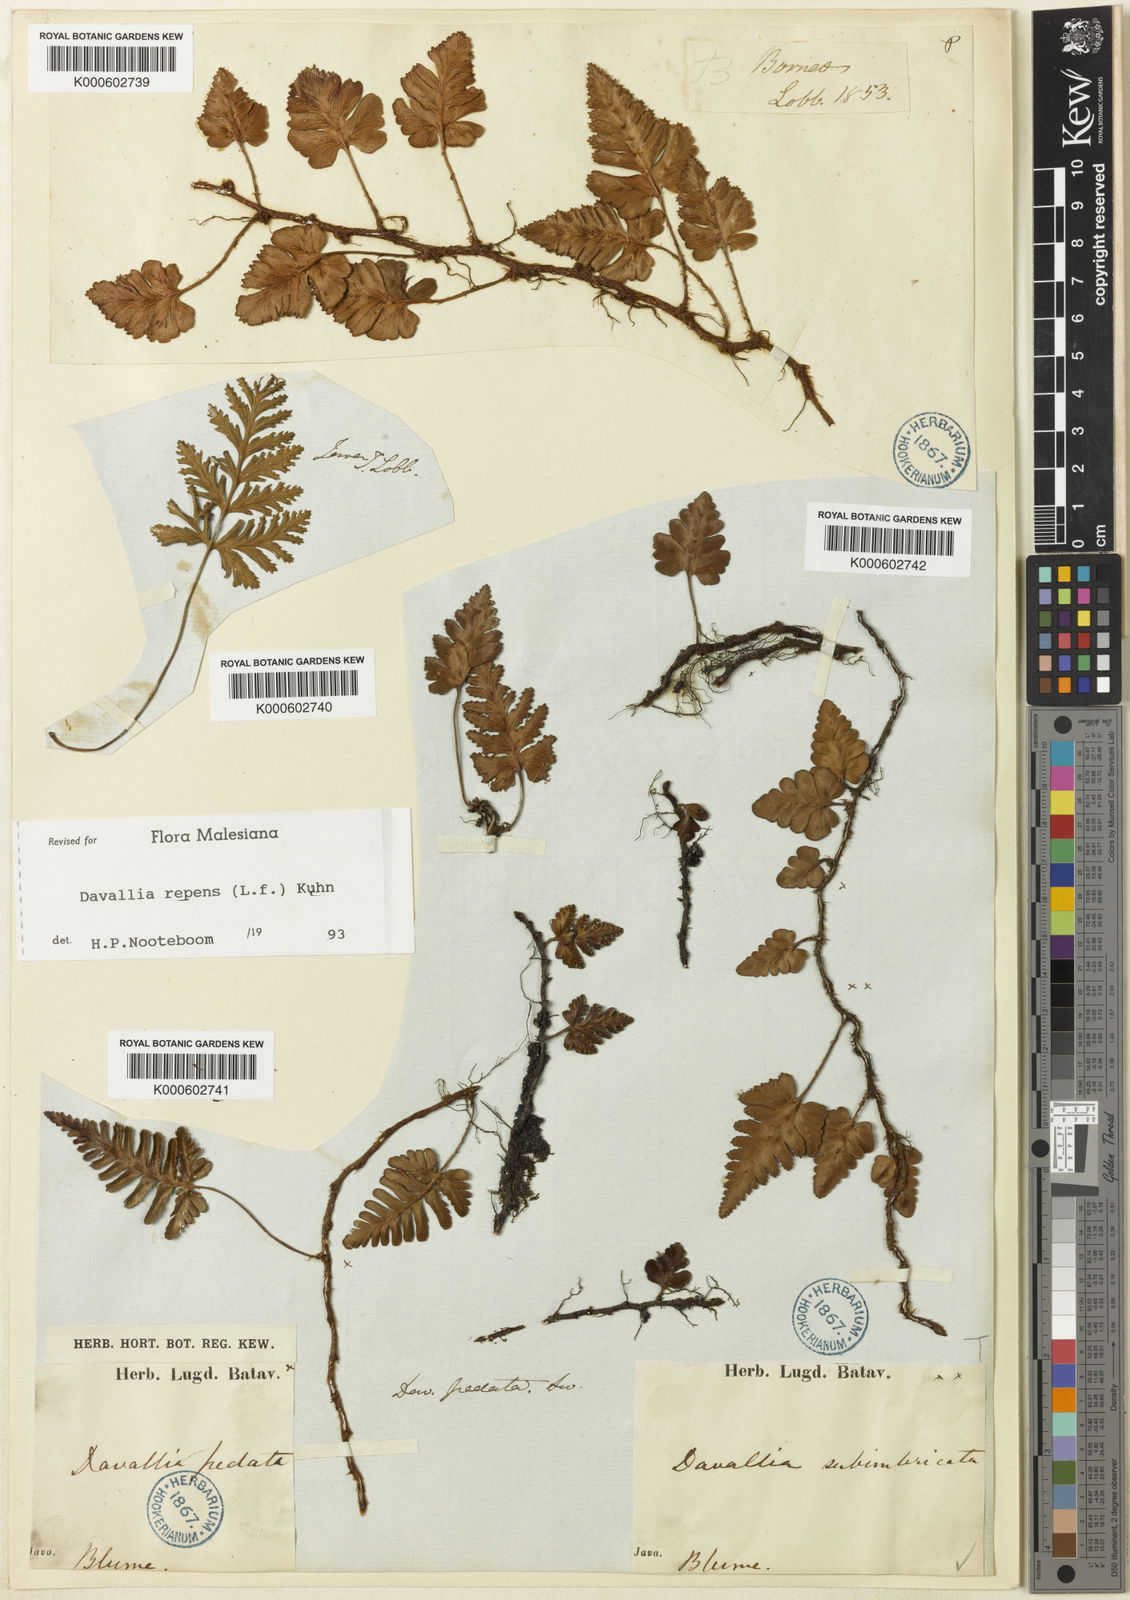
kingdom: Plantae
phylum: Tracheophyta
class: Polypodiopsida
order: Polypodiales
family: Davalliaceae
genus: Davallia
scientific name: Davallia repens
